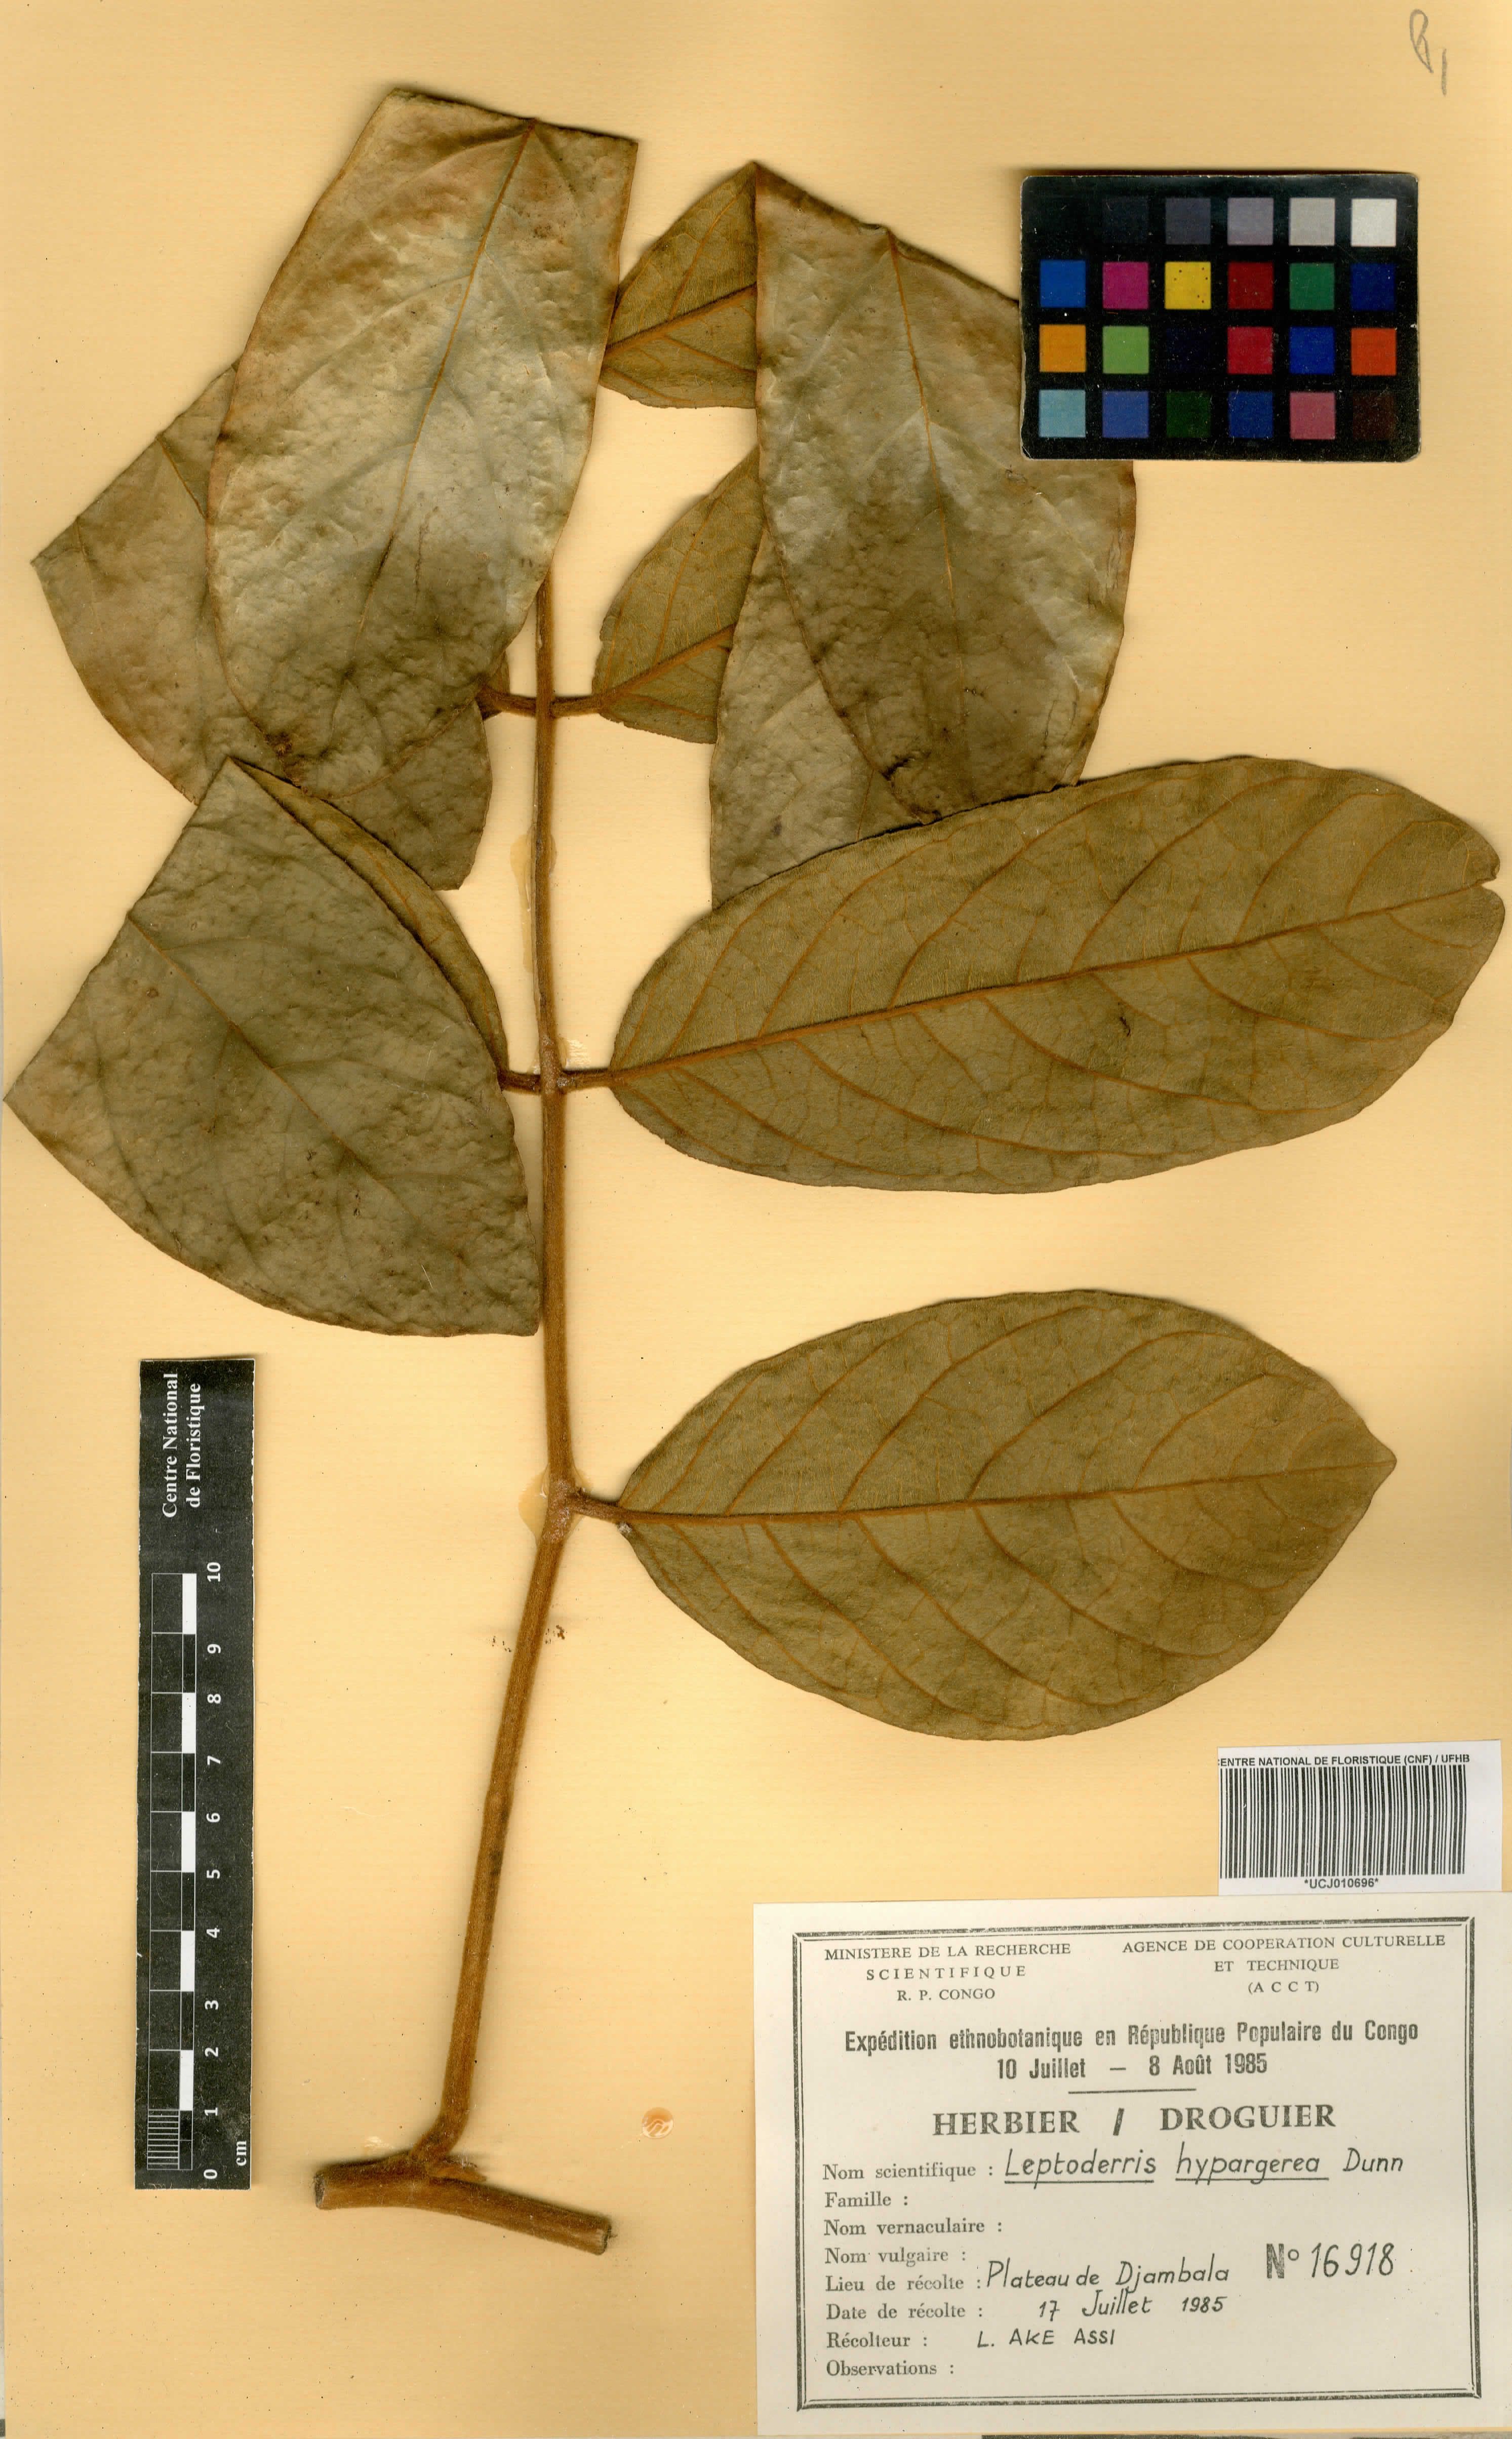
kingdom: Plantae
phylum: Tracheophyta
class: Magnoliopsida
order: Fabales
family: Fabaceae
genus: Leptoderris
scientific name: Leptoderris hypargyrea
